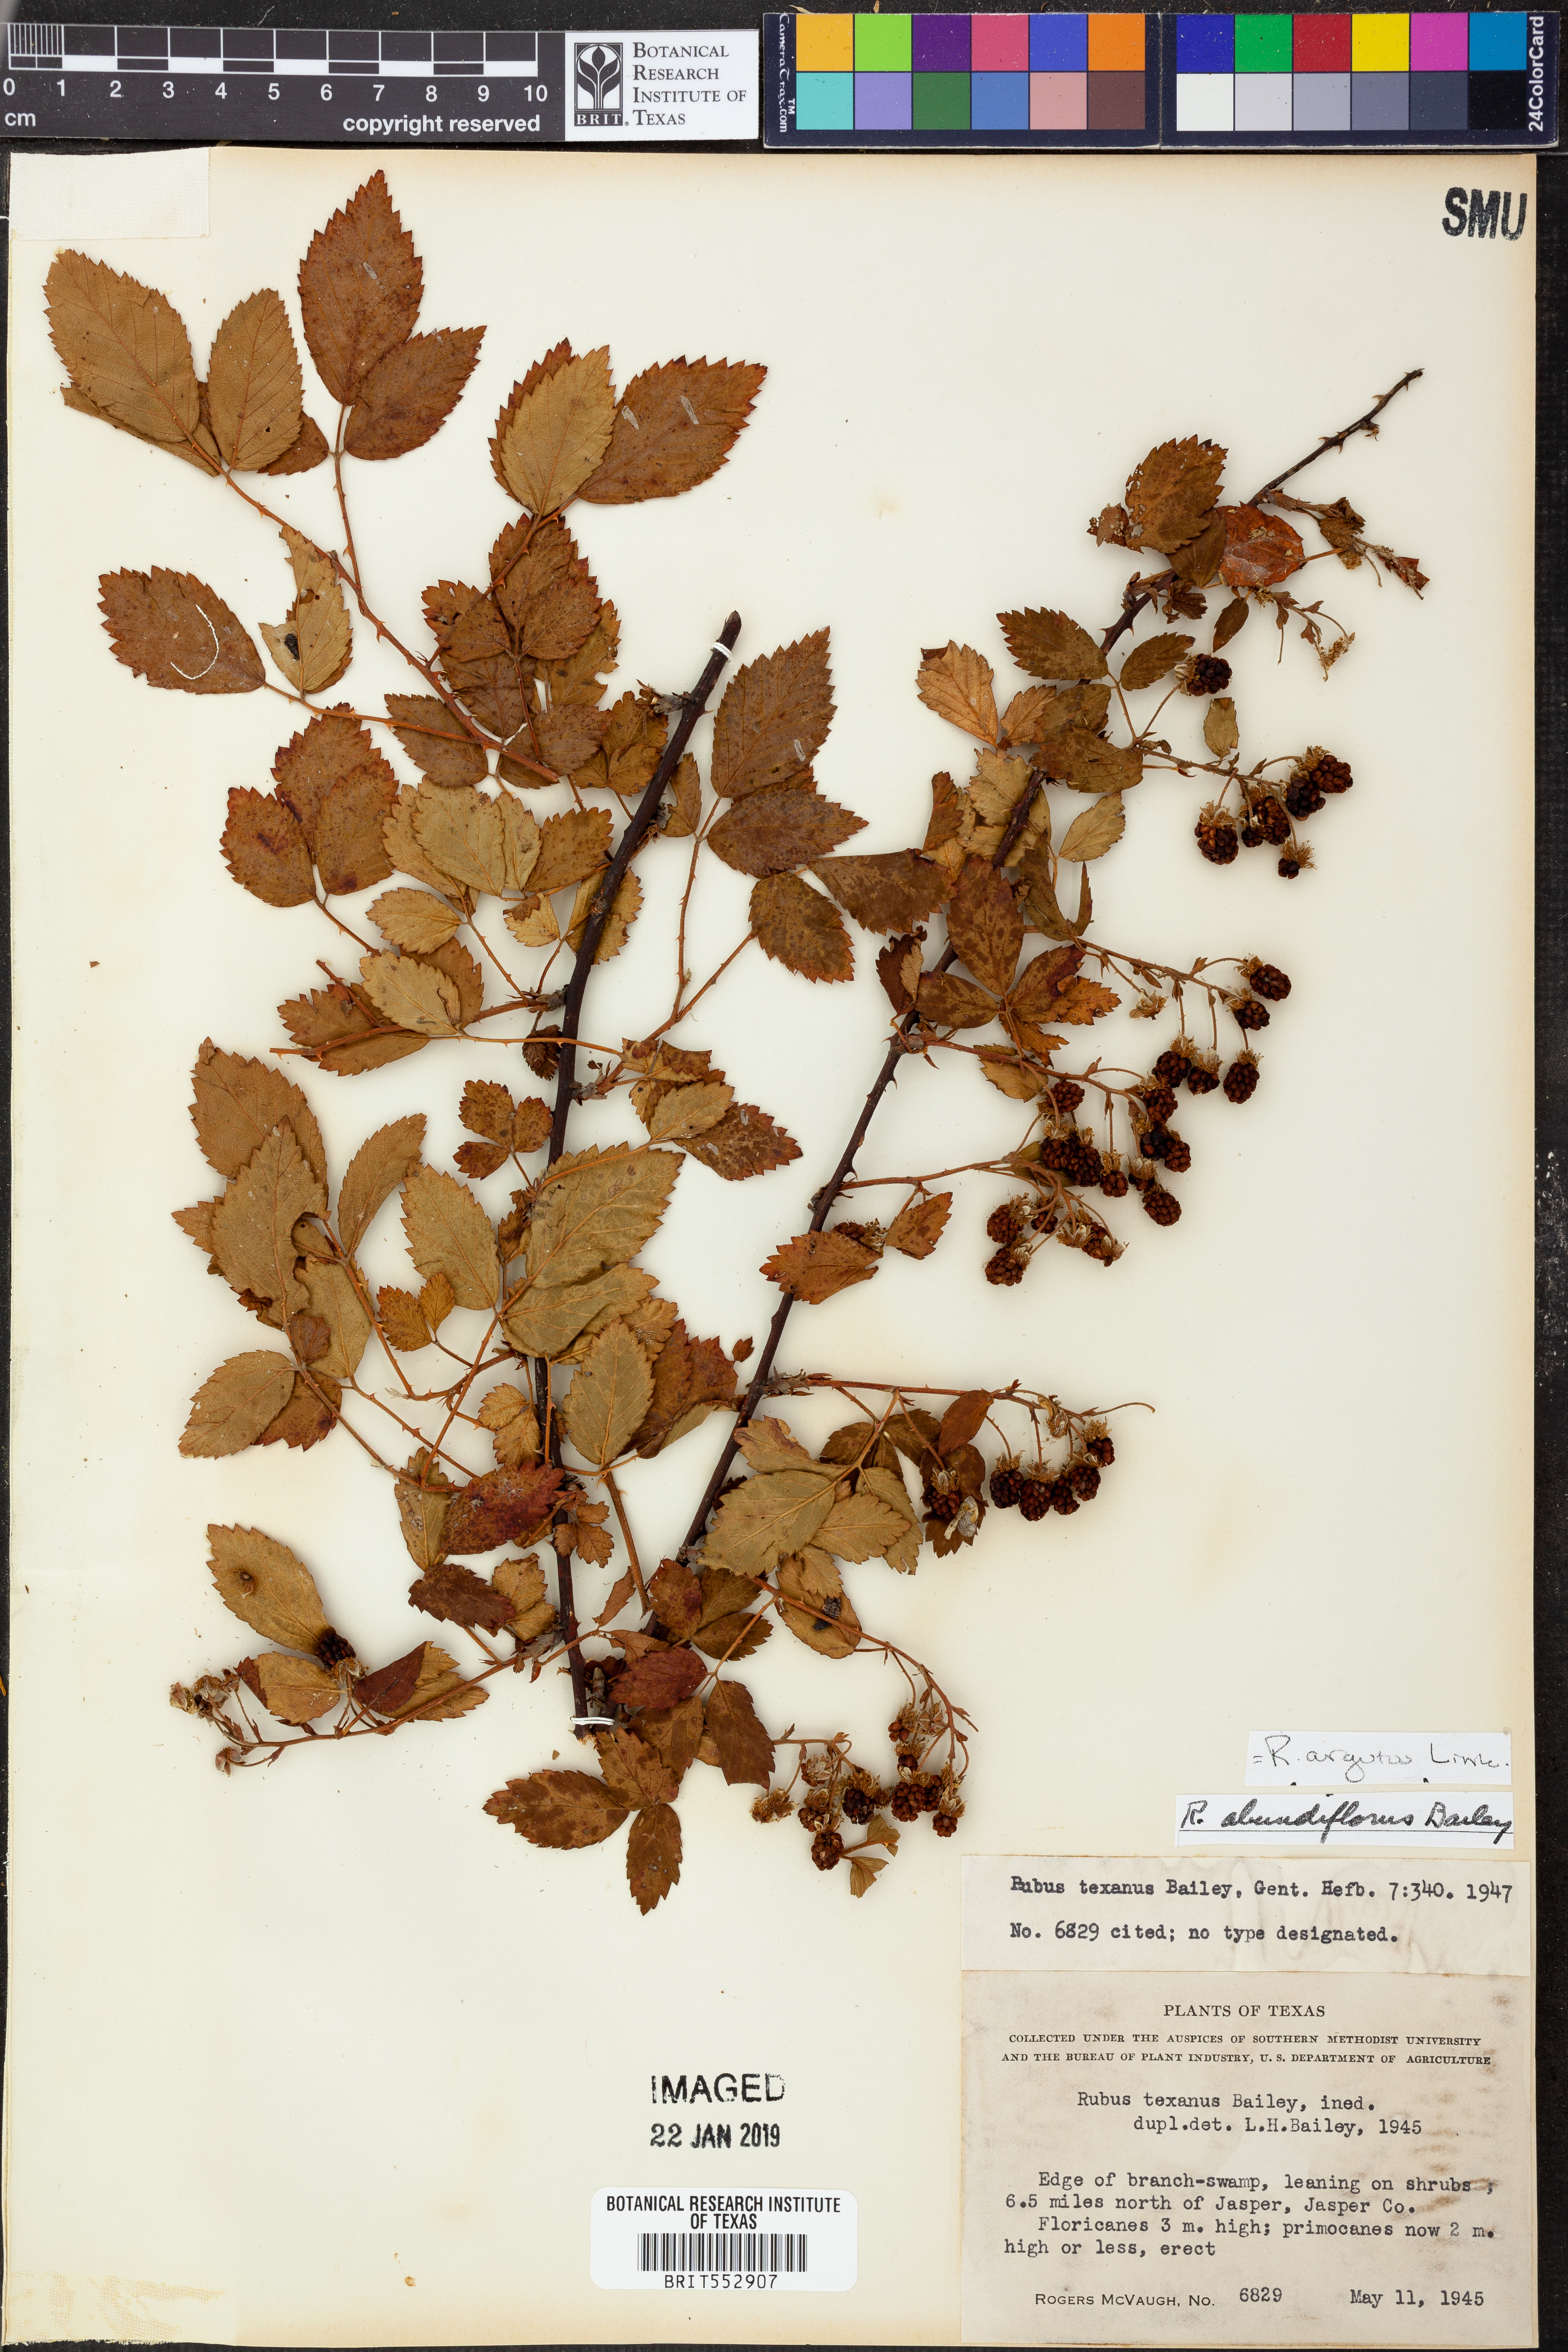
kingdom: Plantae
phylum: Tracheophyta
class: Magnoliopsida
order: Rosales
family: Rosaceae
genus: Rubus
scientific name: Rubus argutus
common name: Sawtooth blackberry
